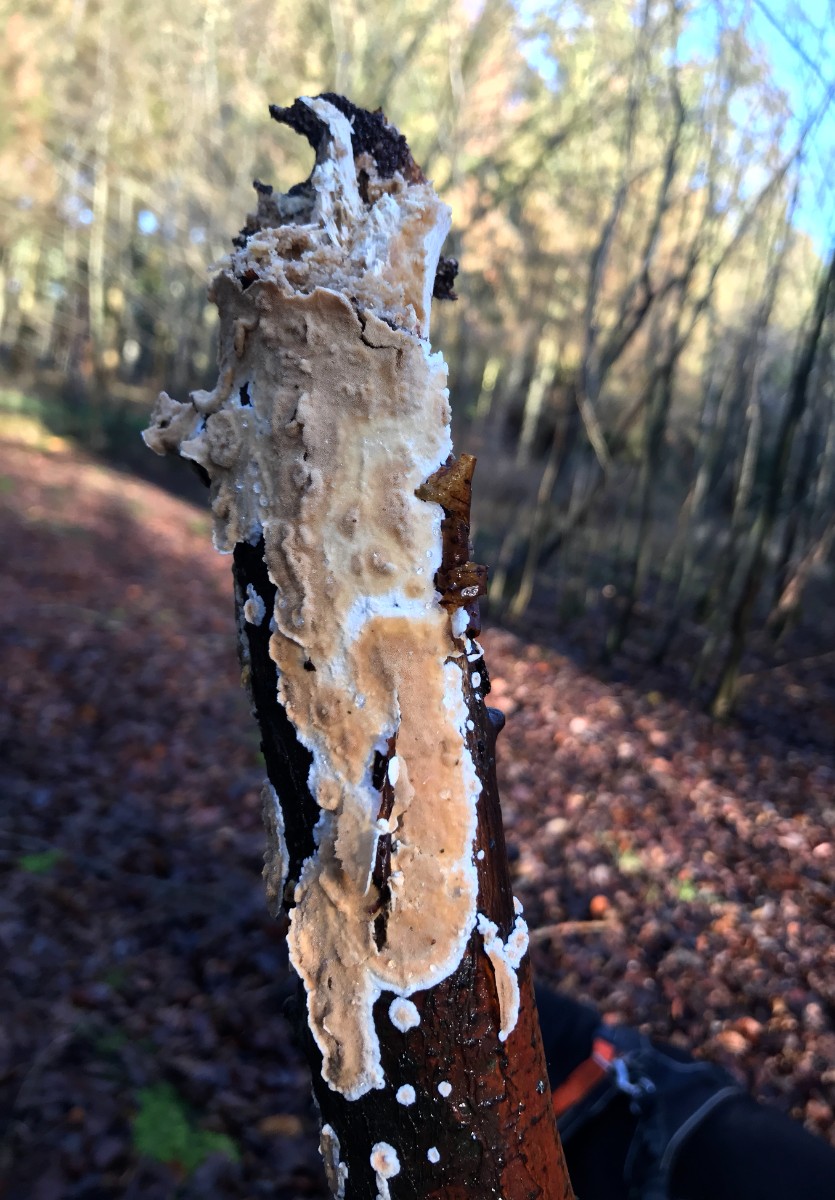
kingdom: Fungi
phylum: Basidiomycota
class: Agaricomycetes
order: Polyporales
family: Steccherinaceae
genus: Steccherinum
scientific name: Steccherinum ochraceum
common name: almindelig skønpig
